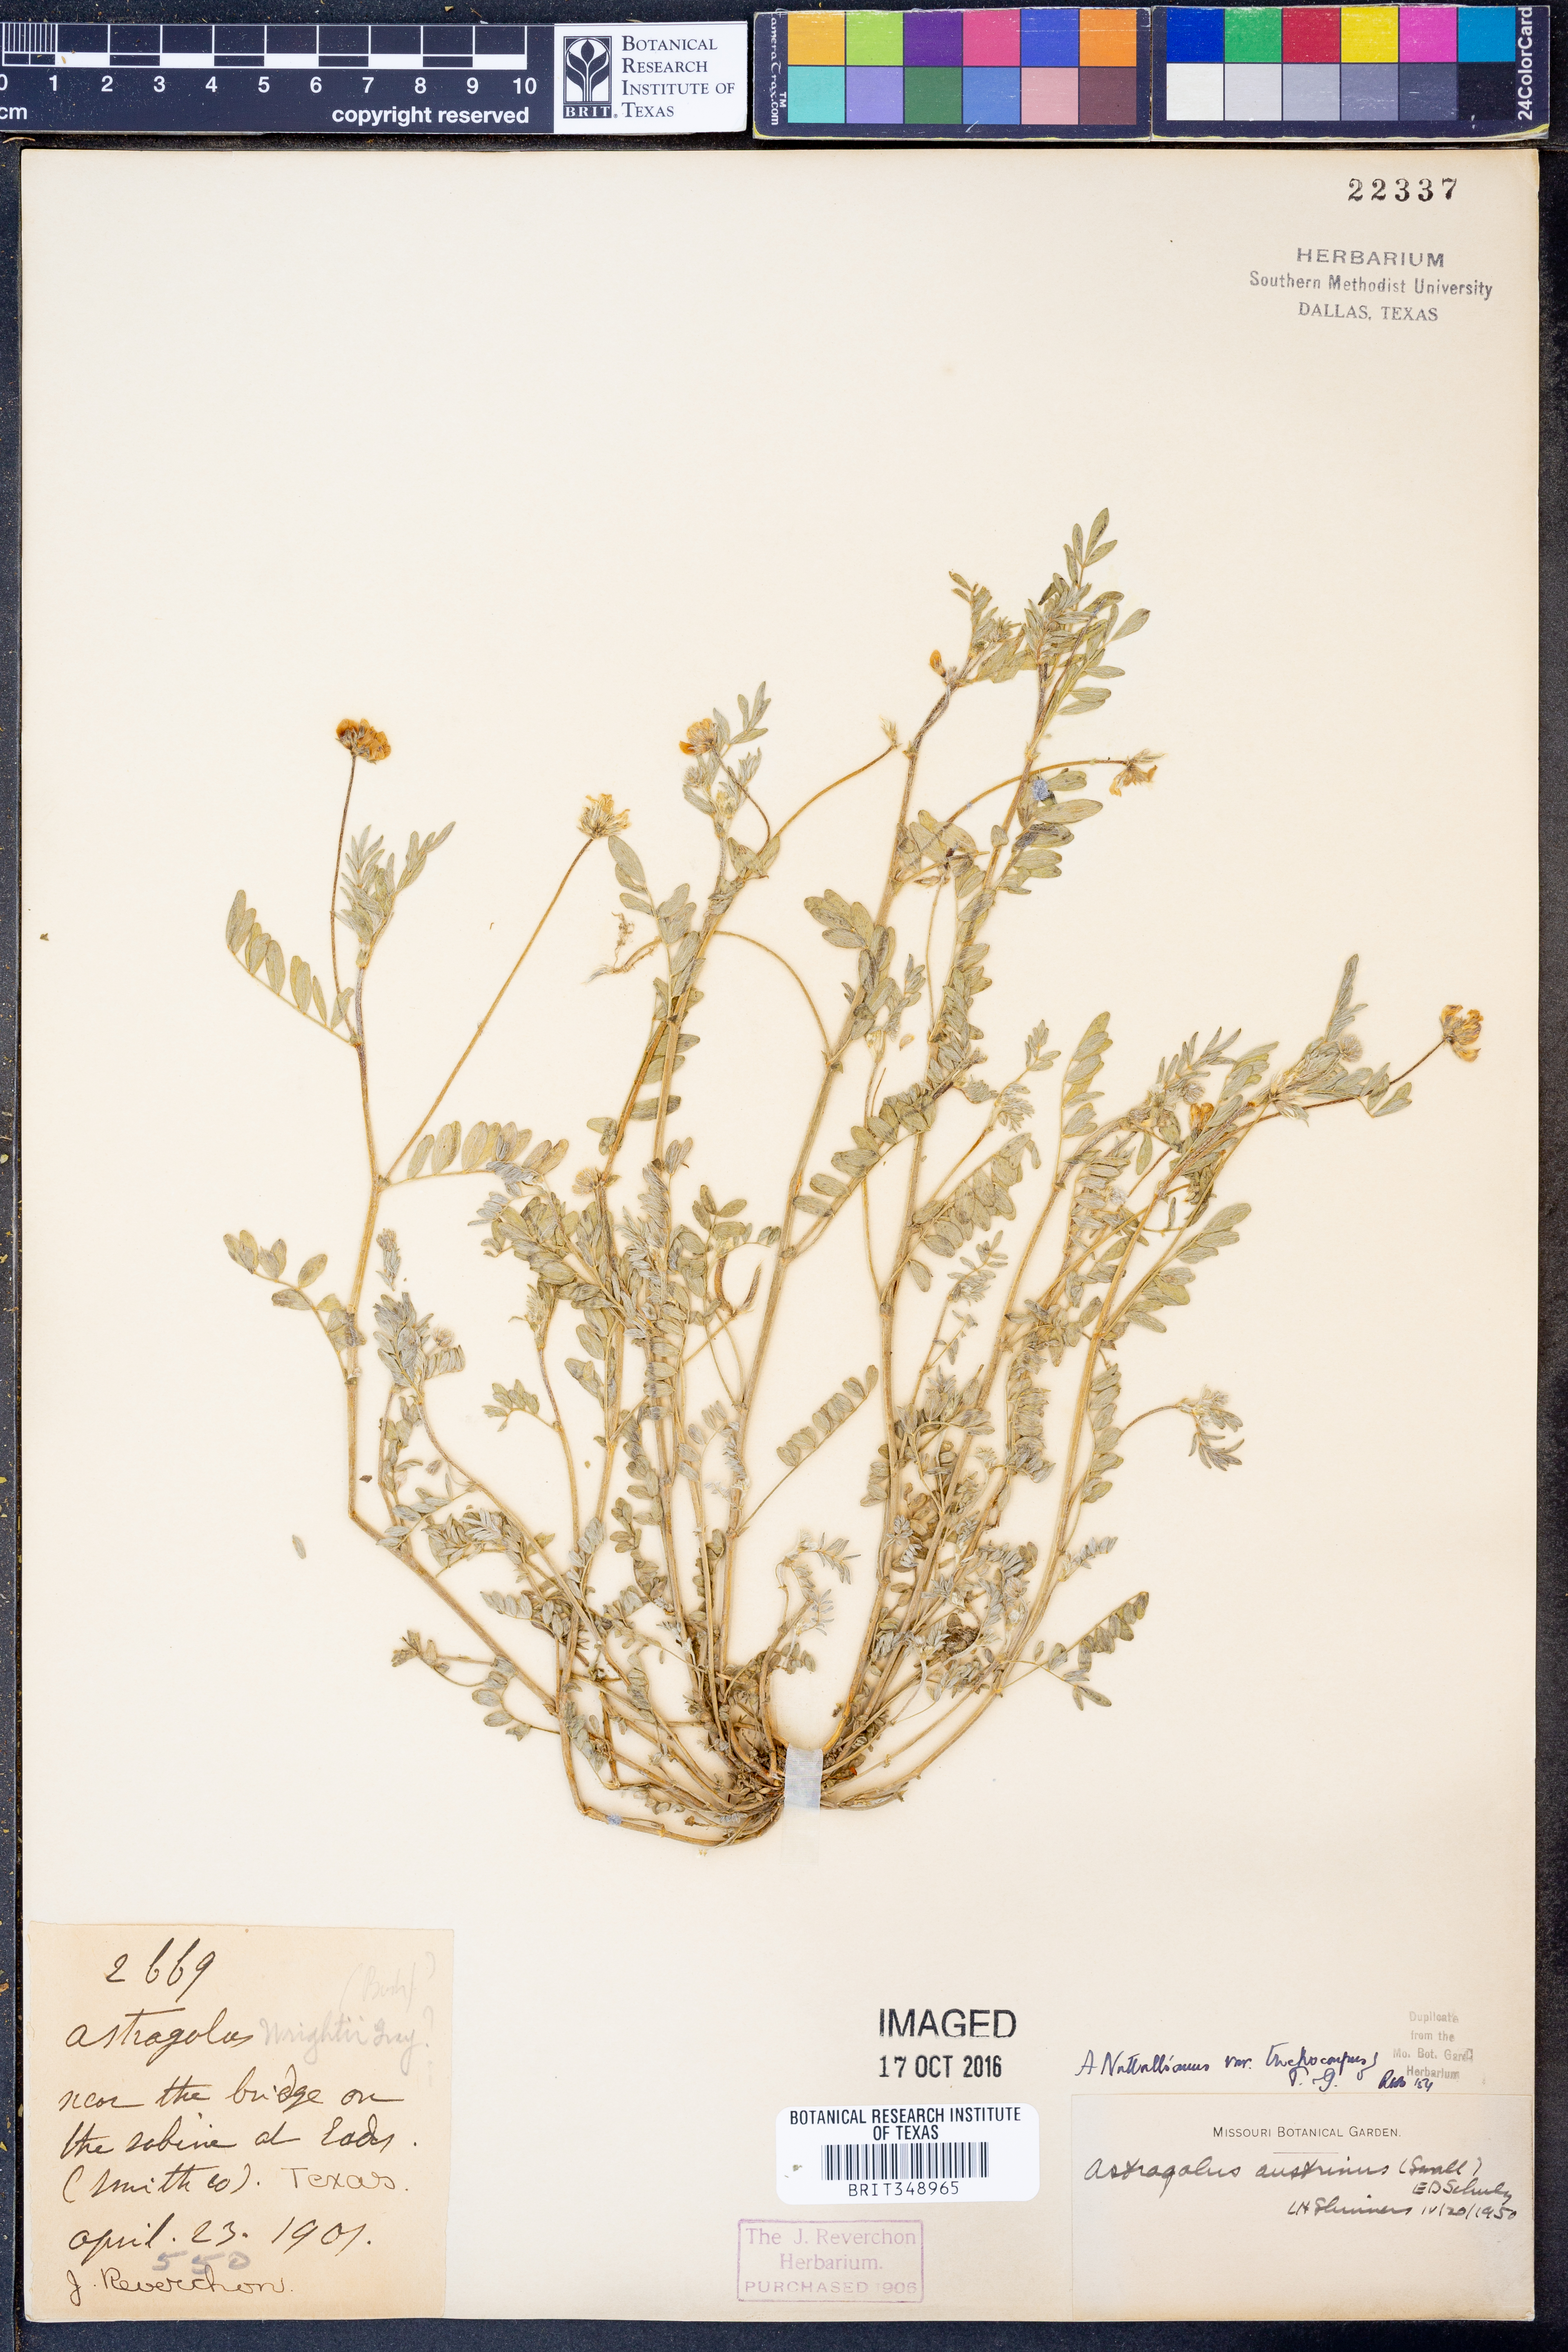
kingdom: Plantae
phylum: Tracheophyta
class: Magnoliopsida
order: Fabales
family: Fabaceae
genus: Astragalus
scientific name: Astragalus nuttallianus
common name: Smallflowered milkvetch
